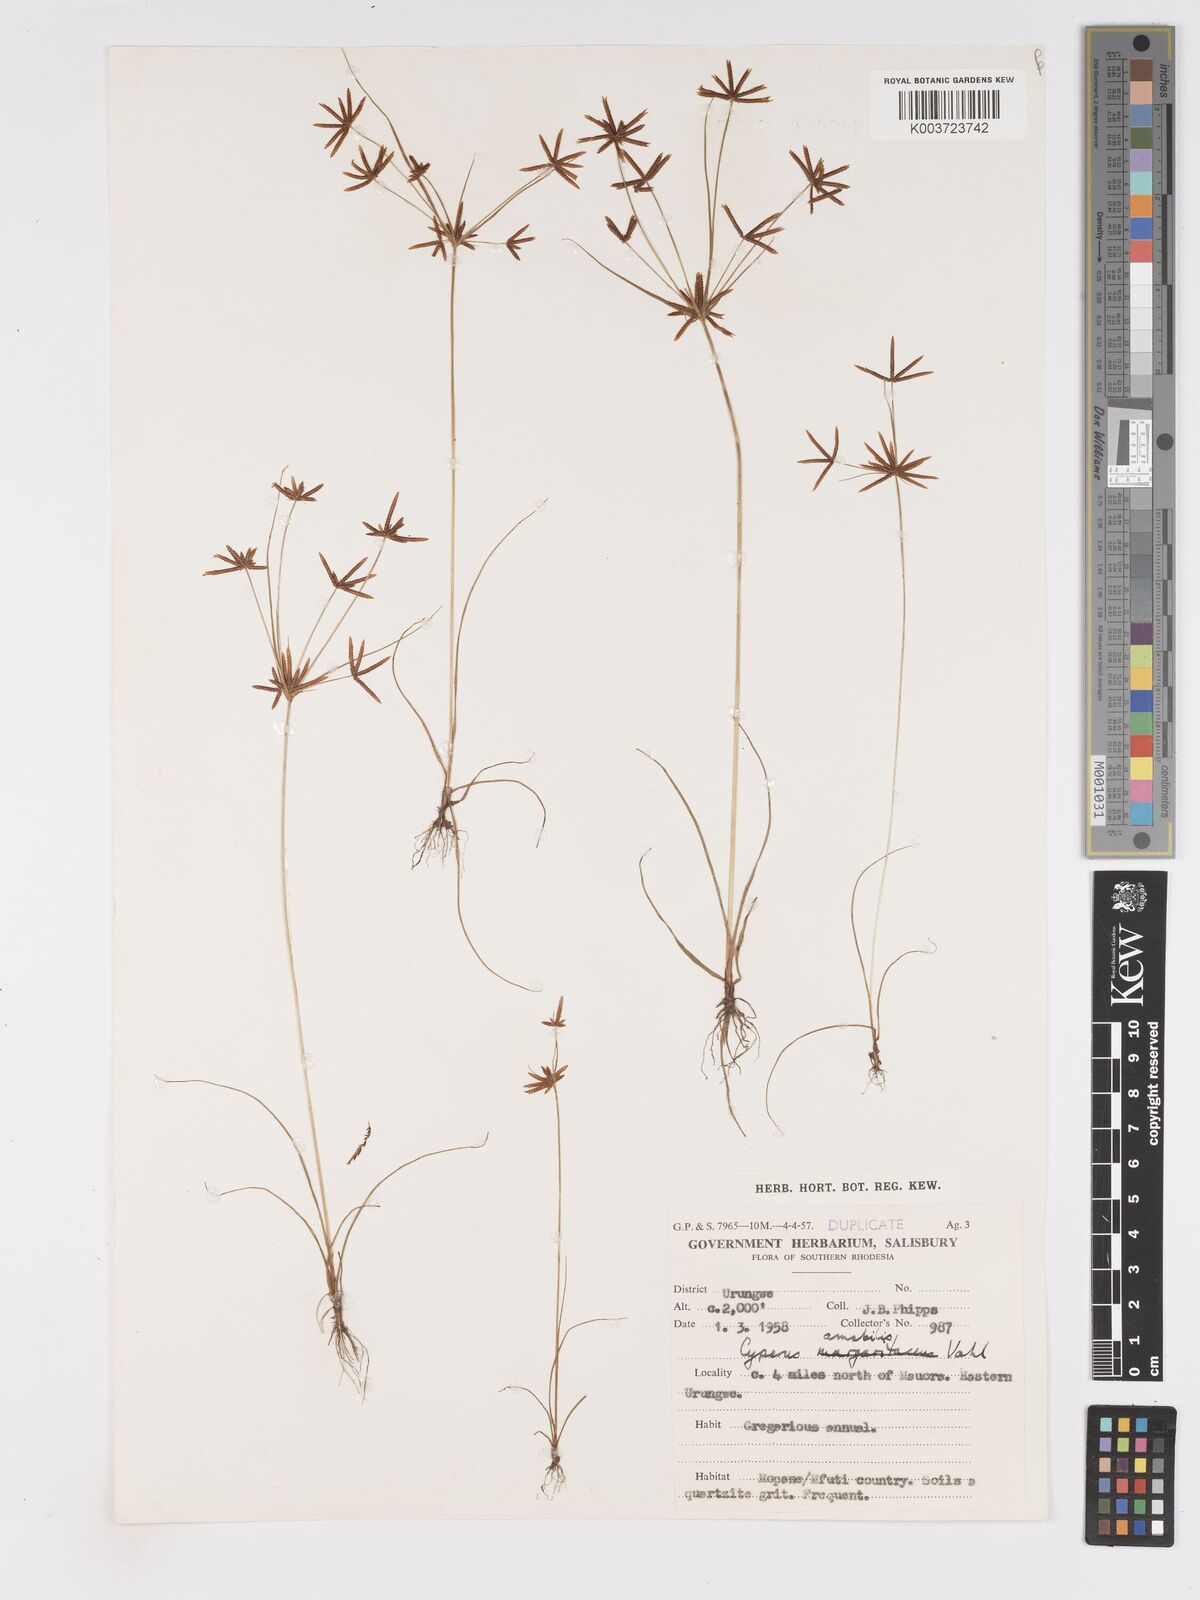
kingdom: Plantae
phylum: Tracheophyta
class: Liliopsida
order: Poales
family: Cyperaceae
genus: Cyperus
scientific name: Cyperus amabilis
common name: Foothill flat sedge
